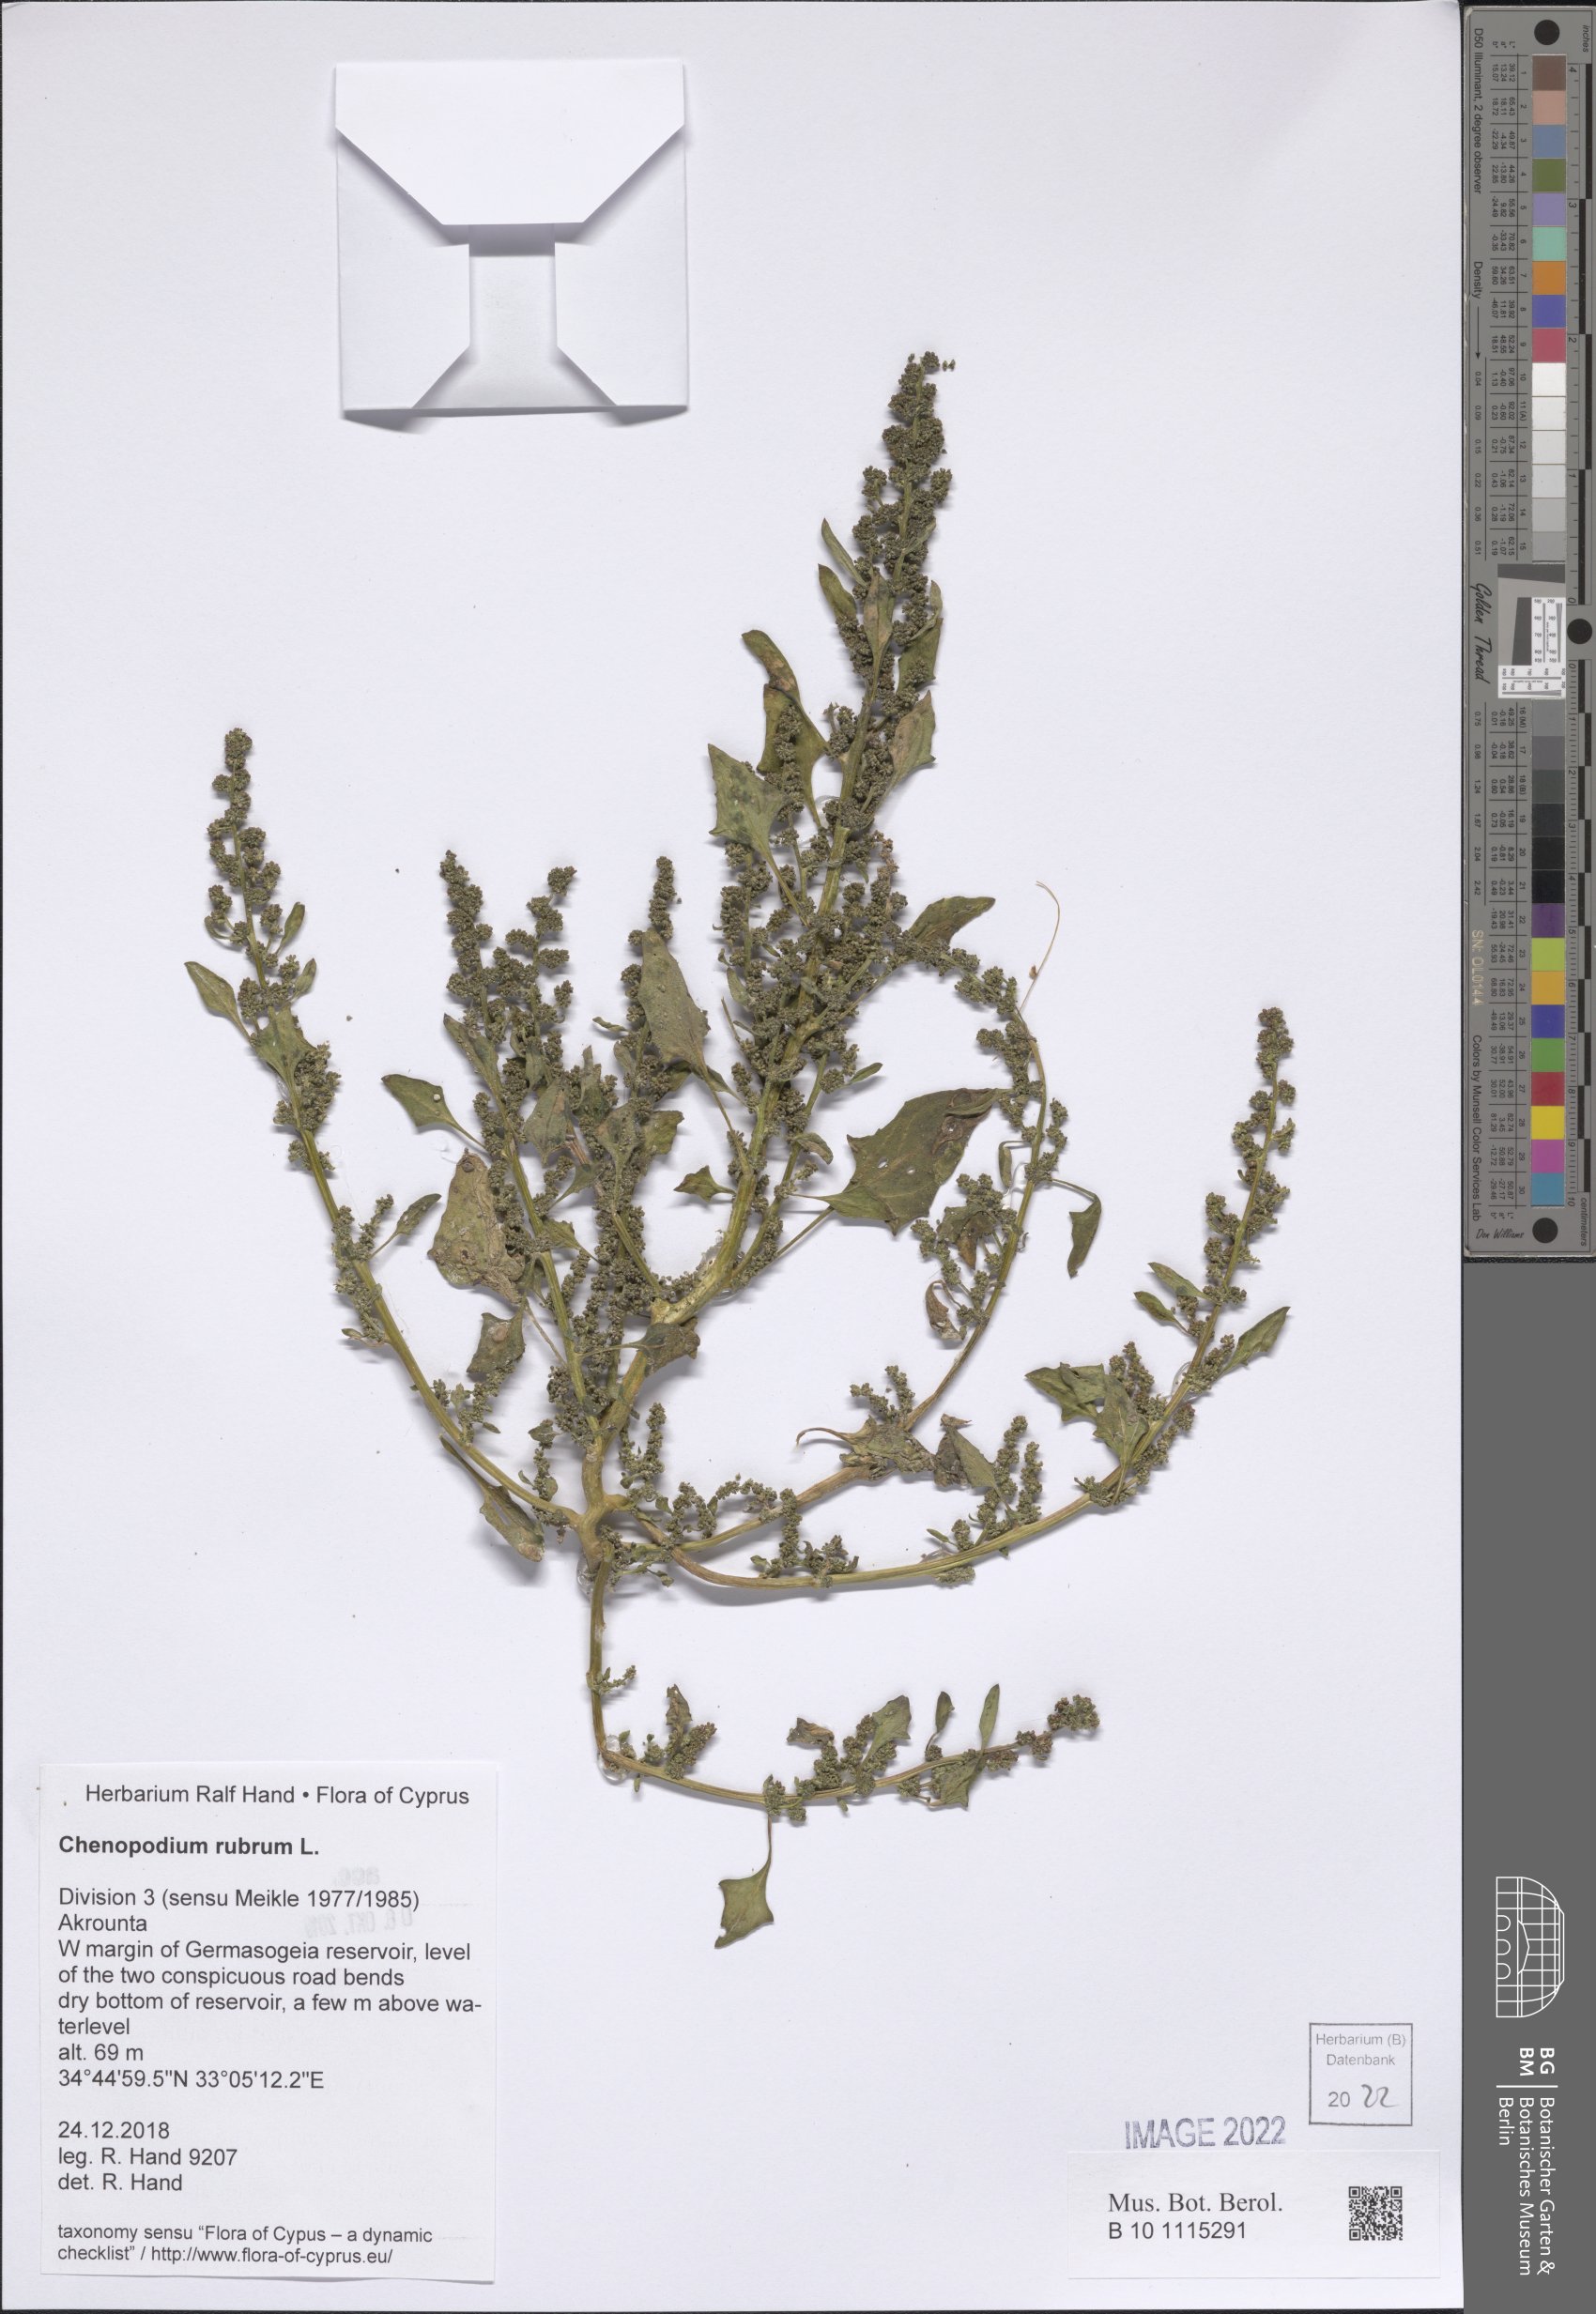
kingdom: Plantae
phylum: Tracheophyta
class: Magnoliopsida
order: Caryophyllales
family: Amaranthaceae
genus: Oxybasis
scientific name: Oxybasis rubra
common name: Red goosefoot
